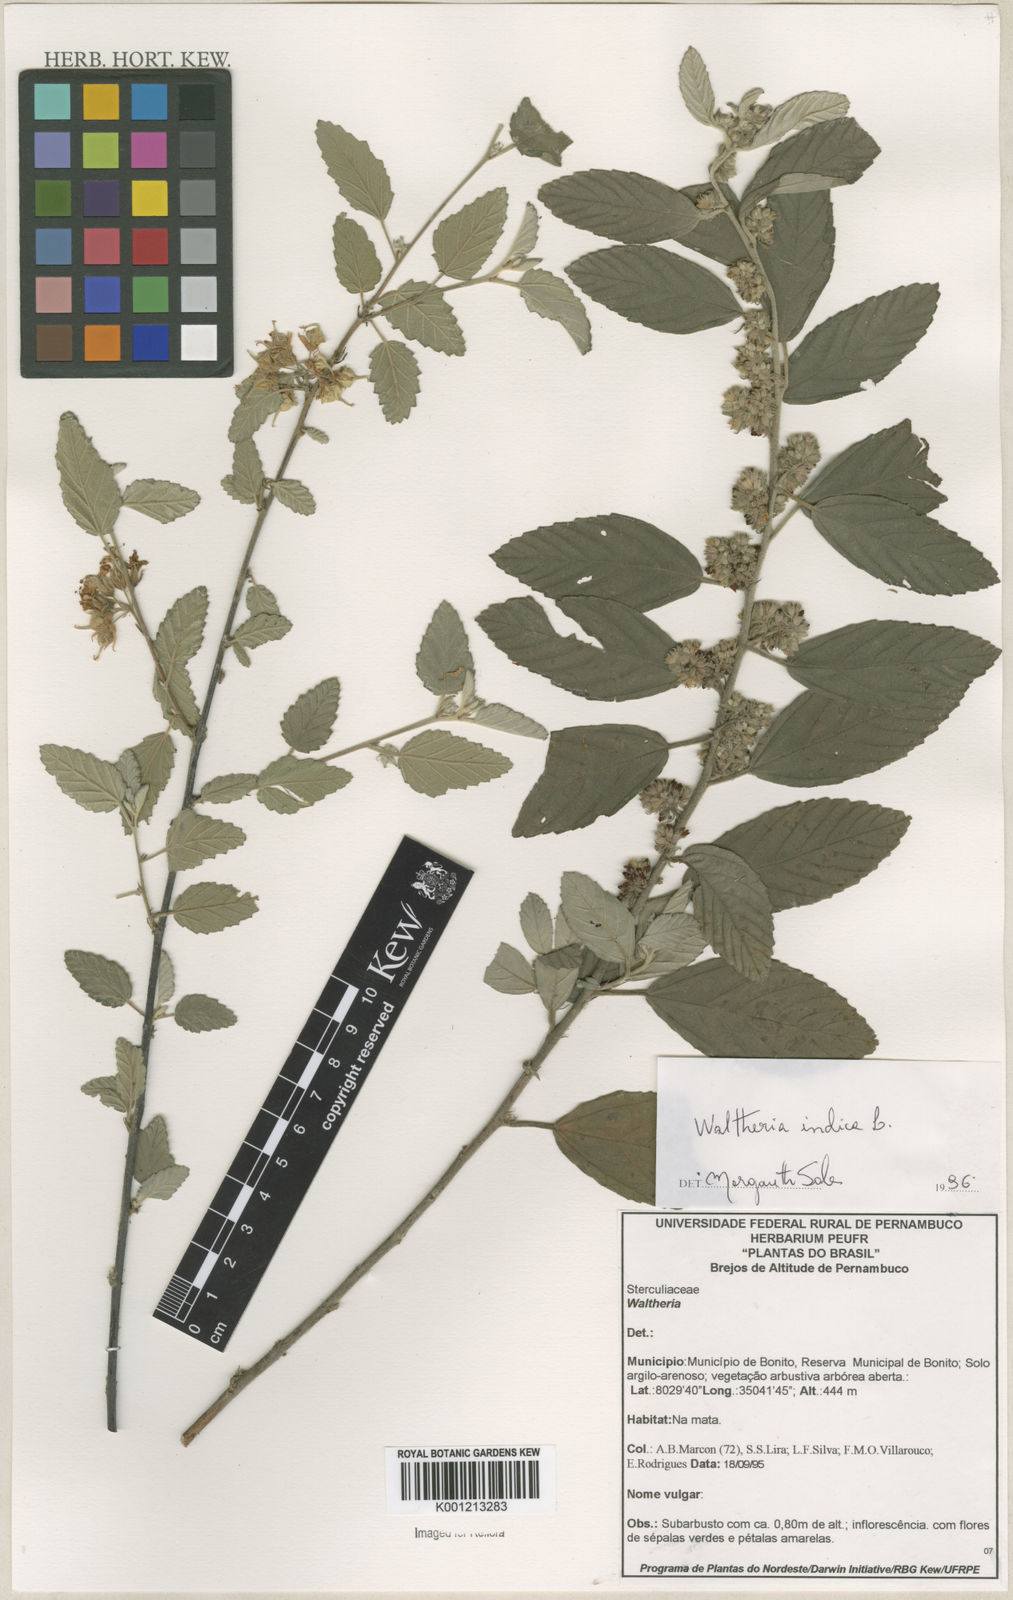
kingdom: Plantae
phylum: Tracheophyta
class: Magnoliopsida
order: Malvales
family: Malvaceae
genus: Waltheria
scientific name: Waltheria indica
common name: Leather-coat
